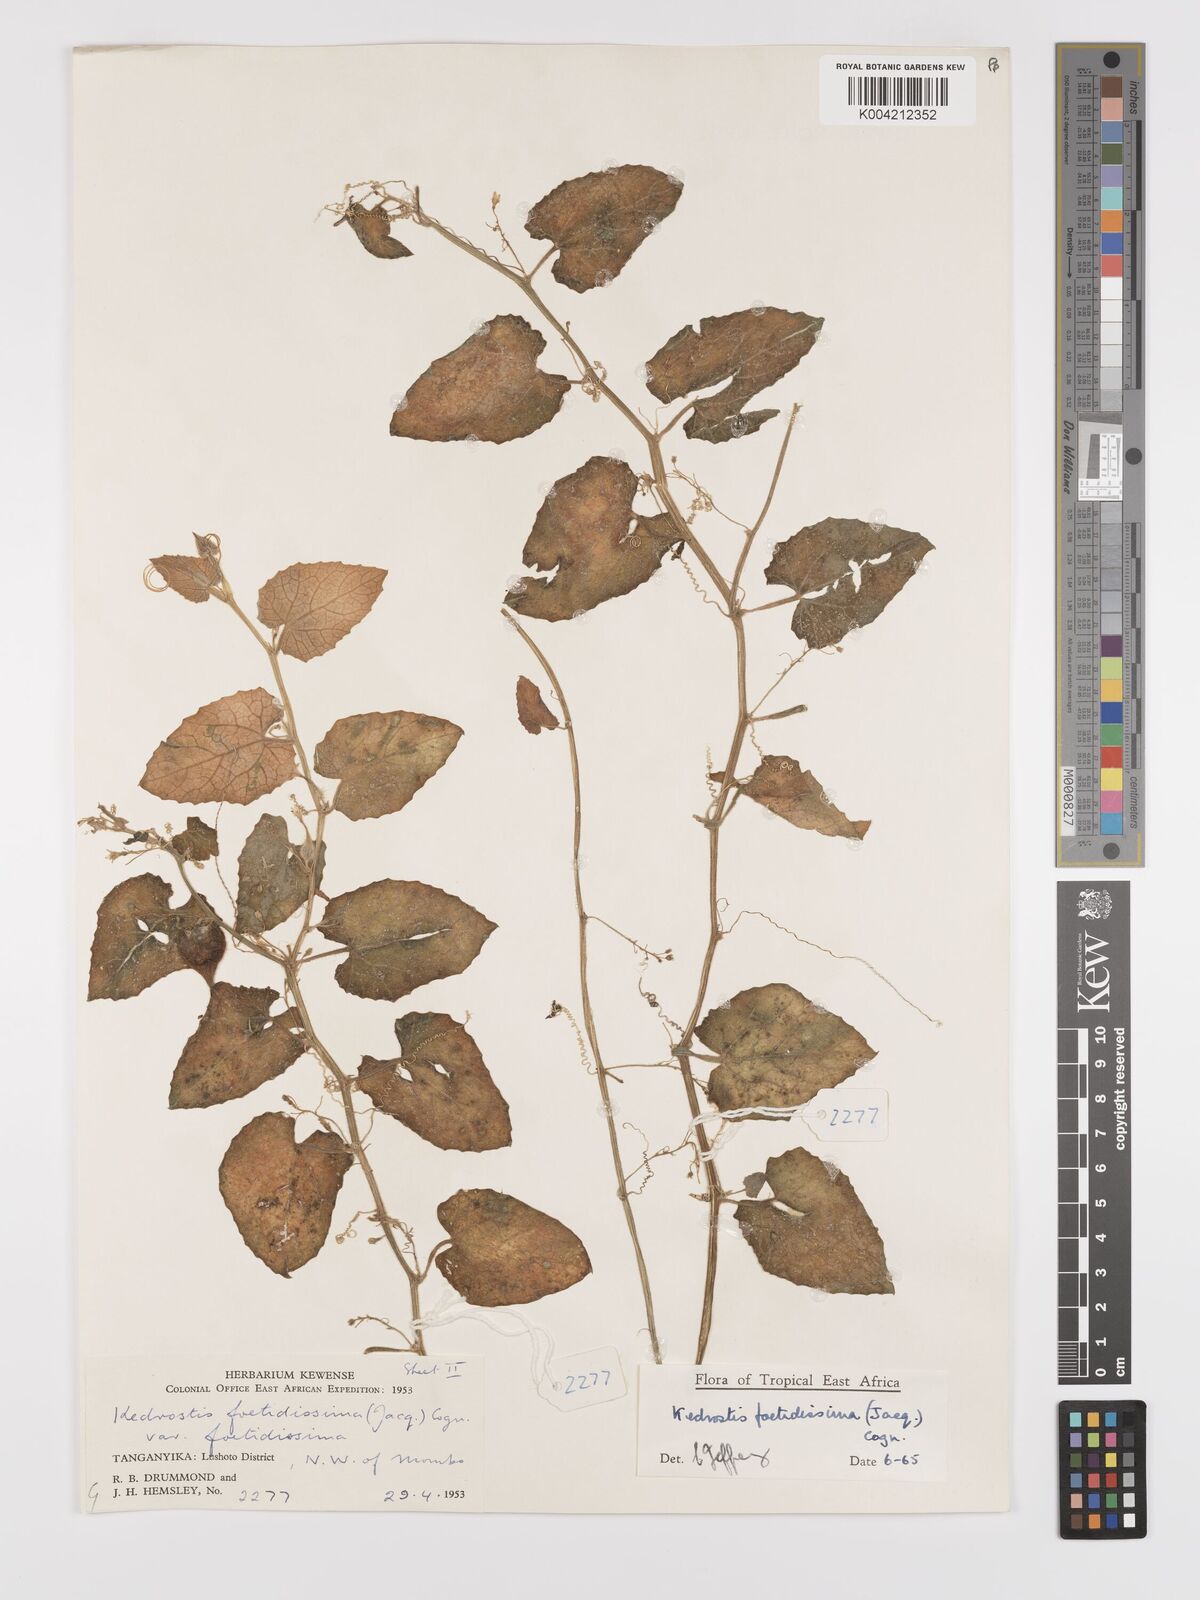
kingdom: Plantae
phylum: Tracheophyta
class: Magnoliopsida
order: Cucurbitales
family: Cucurbitaceae
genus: Kedrostis
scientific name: Kedrostis foetidissima
